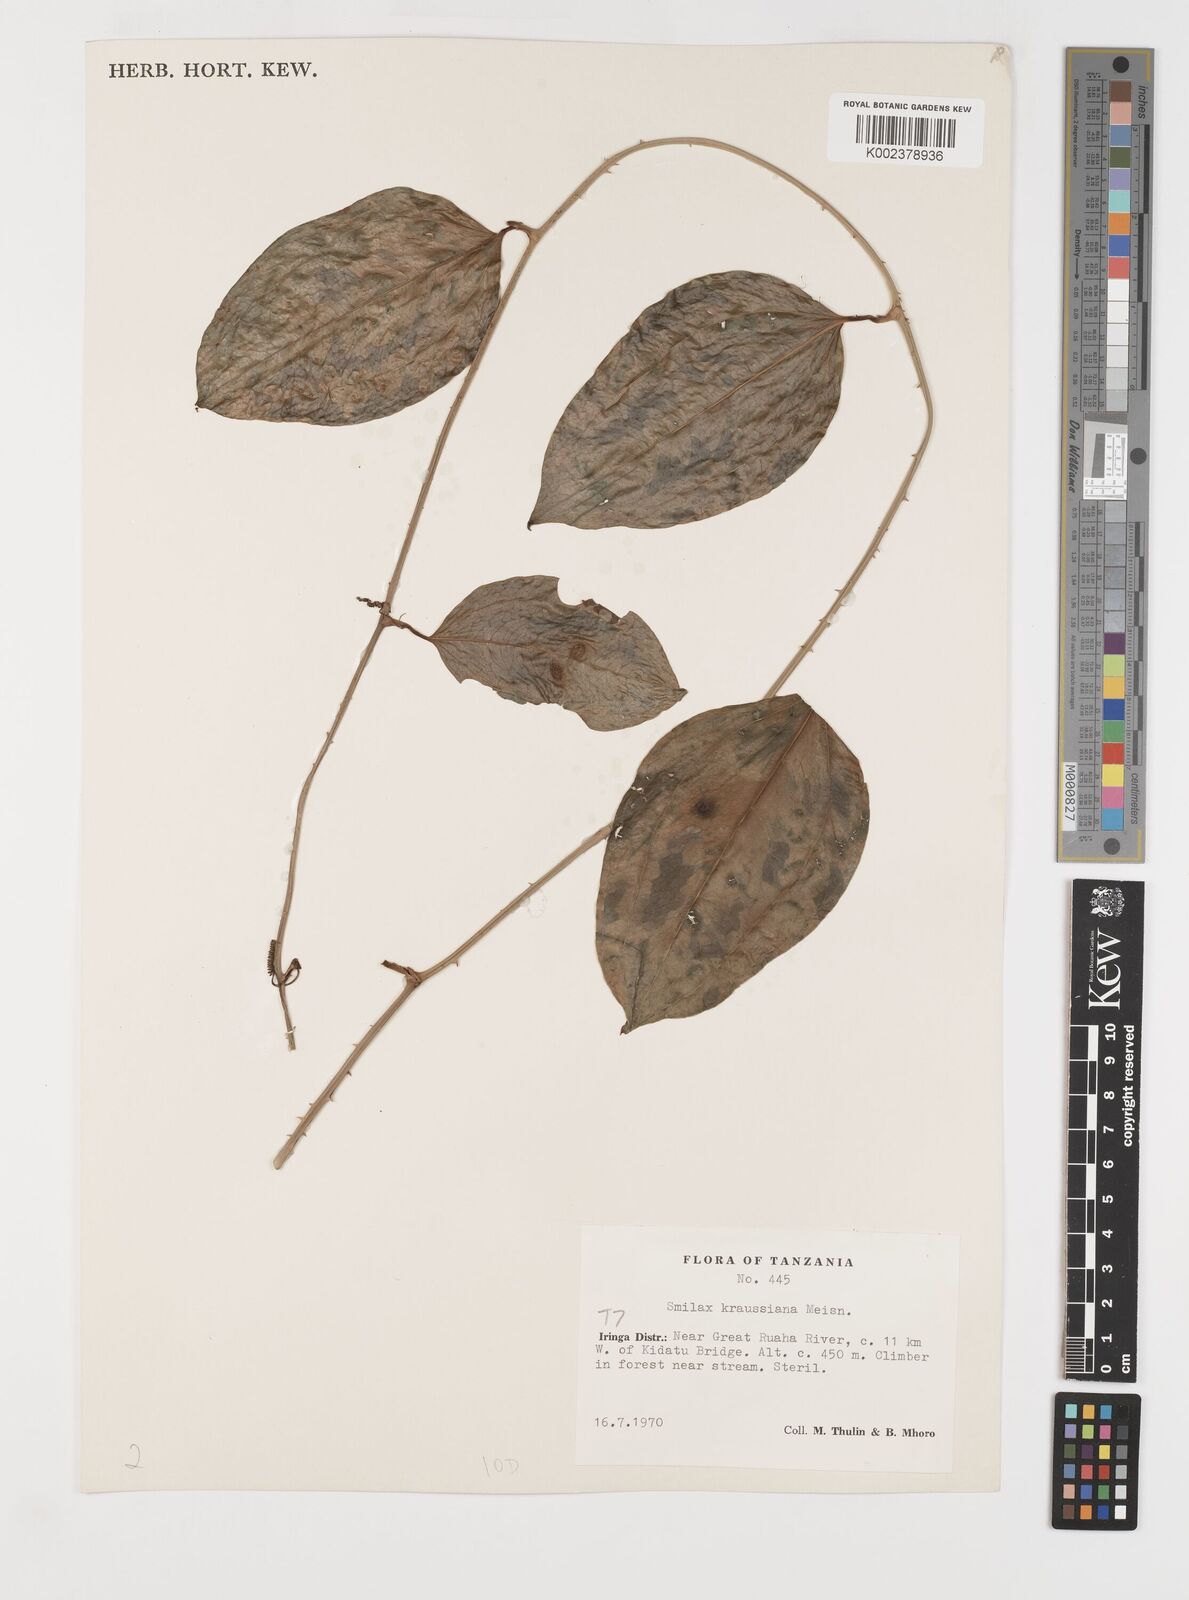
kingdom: Plantae
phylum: Tracheophyta
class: Liliopsida
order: Liliales
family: Smilacaceae
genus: Smilax
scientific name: Smilax anceps
